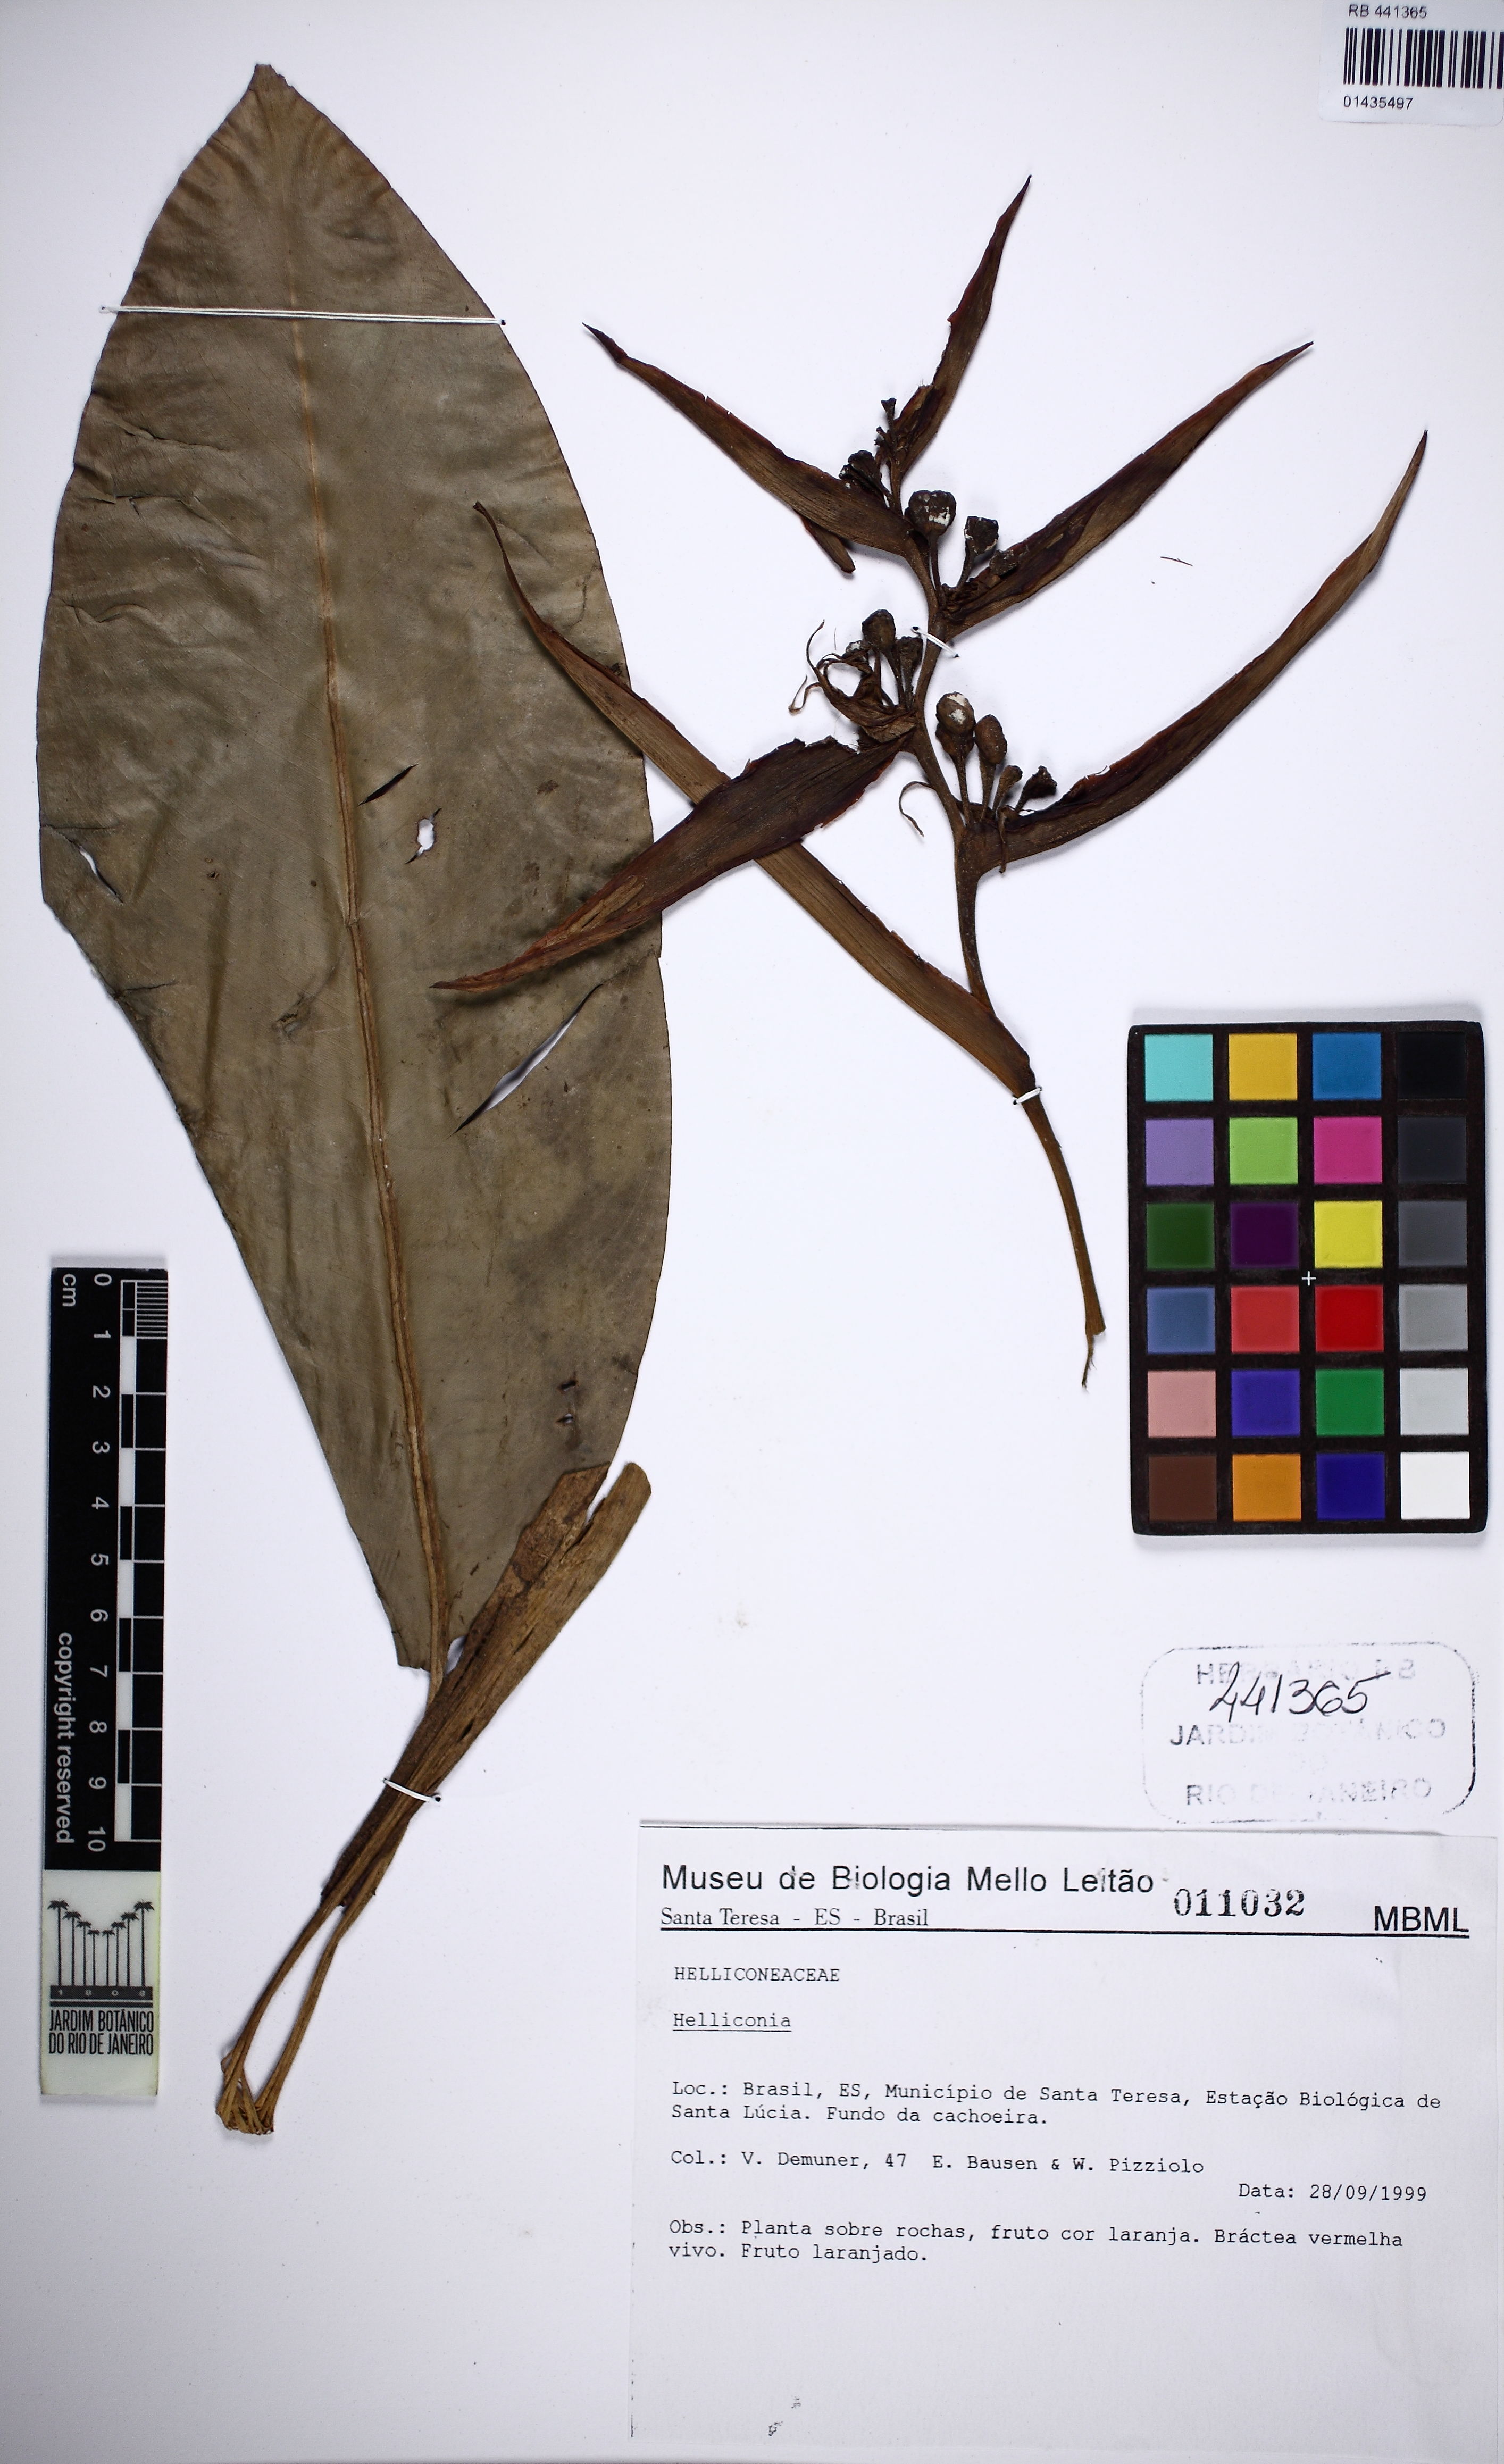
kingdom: Plantae
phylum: Tracheophyta
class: Liliopsida
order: Zingiberales
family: Heliconiaceae
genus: Heliconia
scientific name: Heliconia
